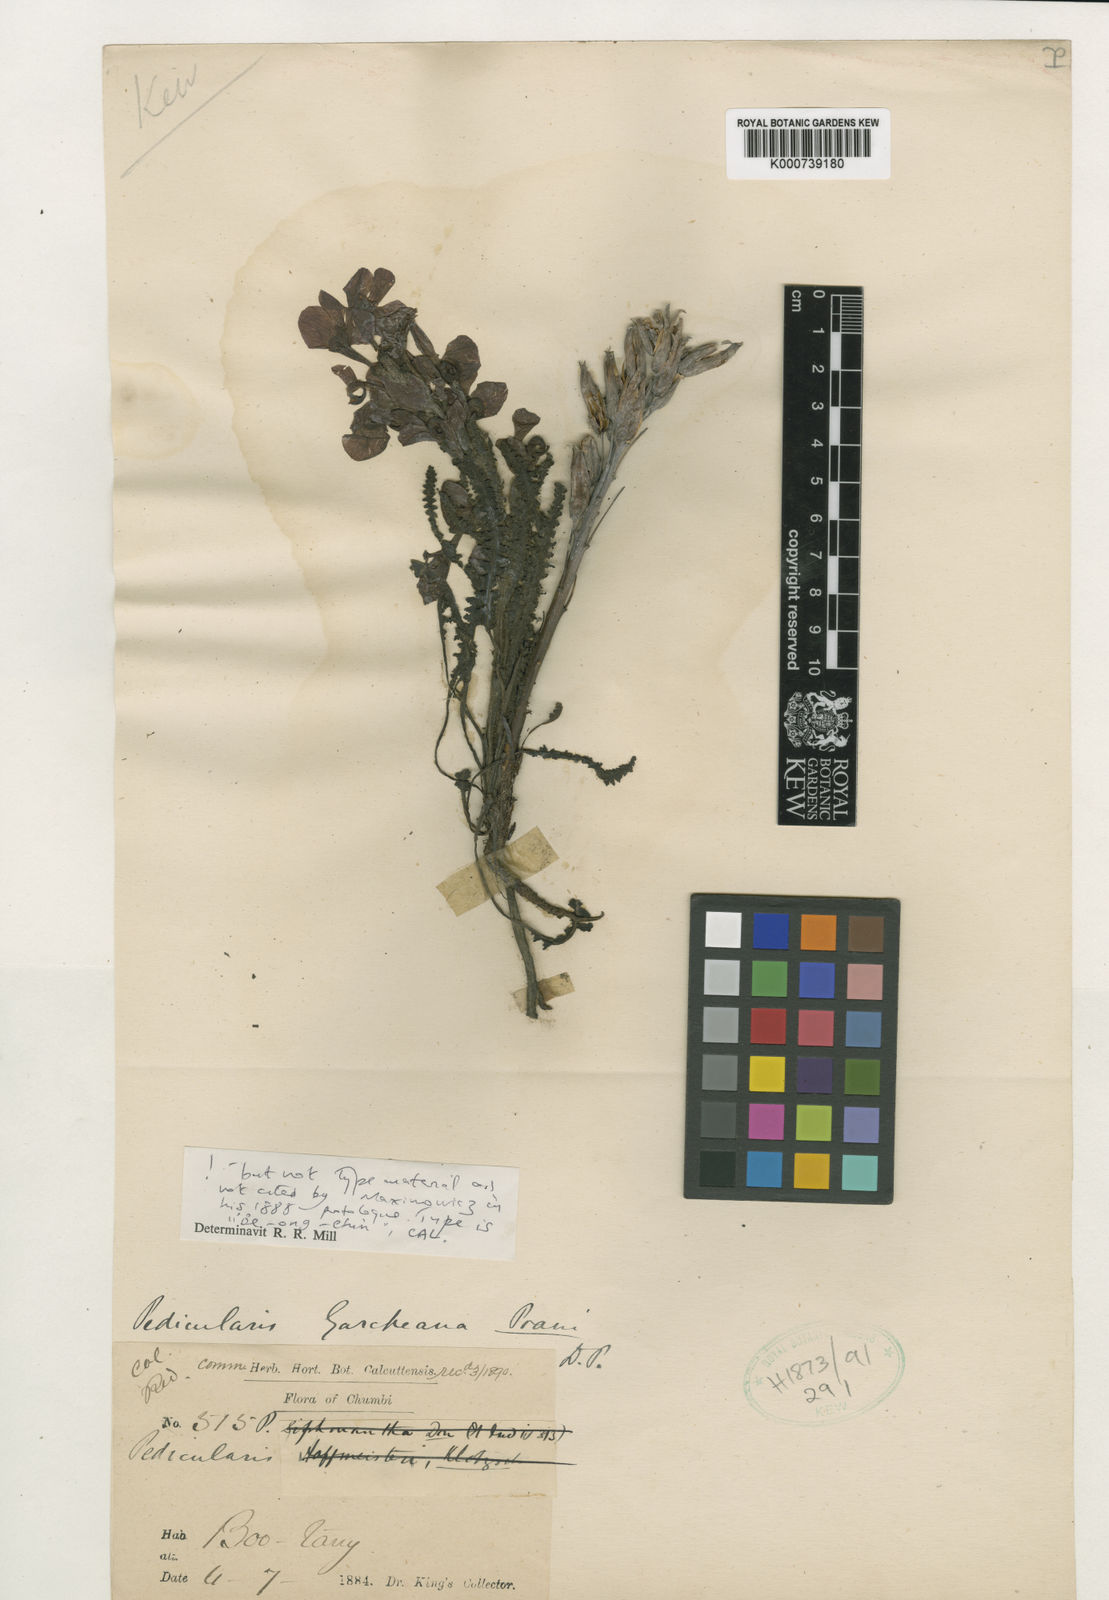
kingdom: Plantae
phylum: Tracheophyta
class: Magnoliopsida
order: Lamiales
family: Orobanchaceae
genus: Pedicularis
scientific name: Pedicularis garckeana
